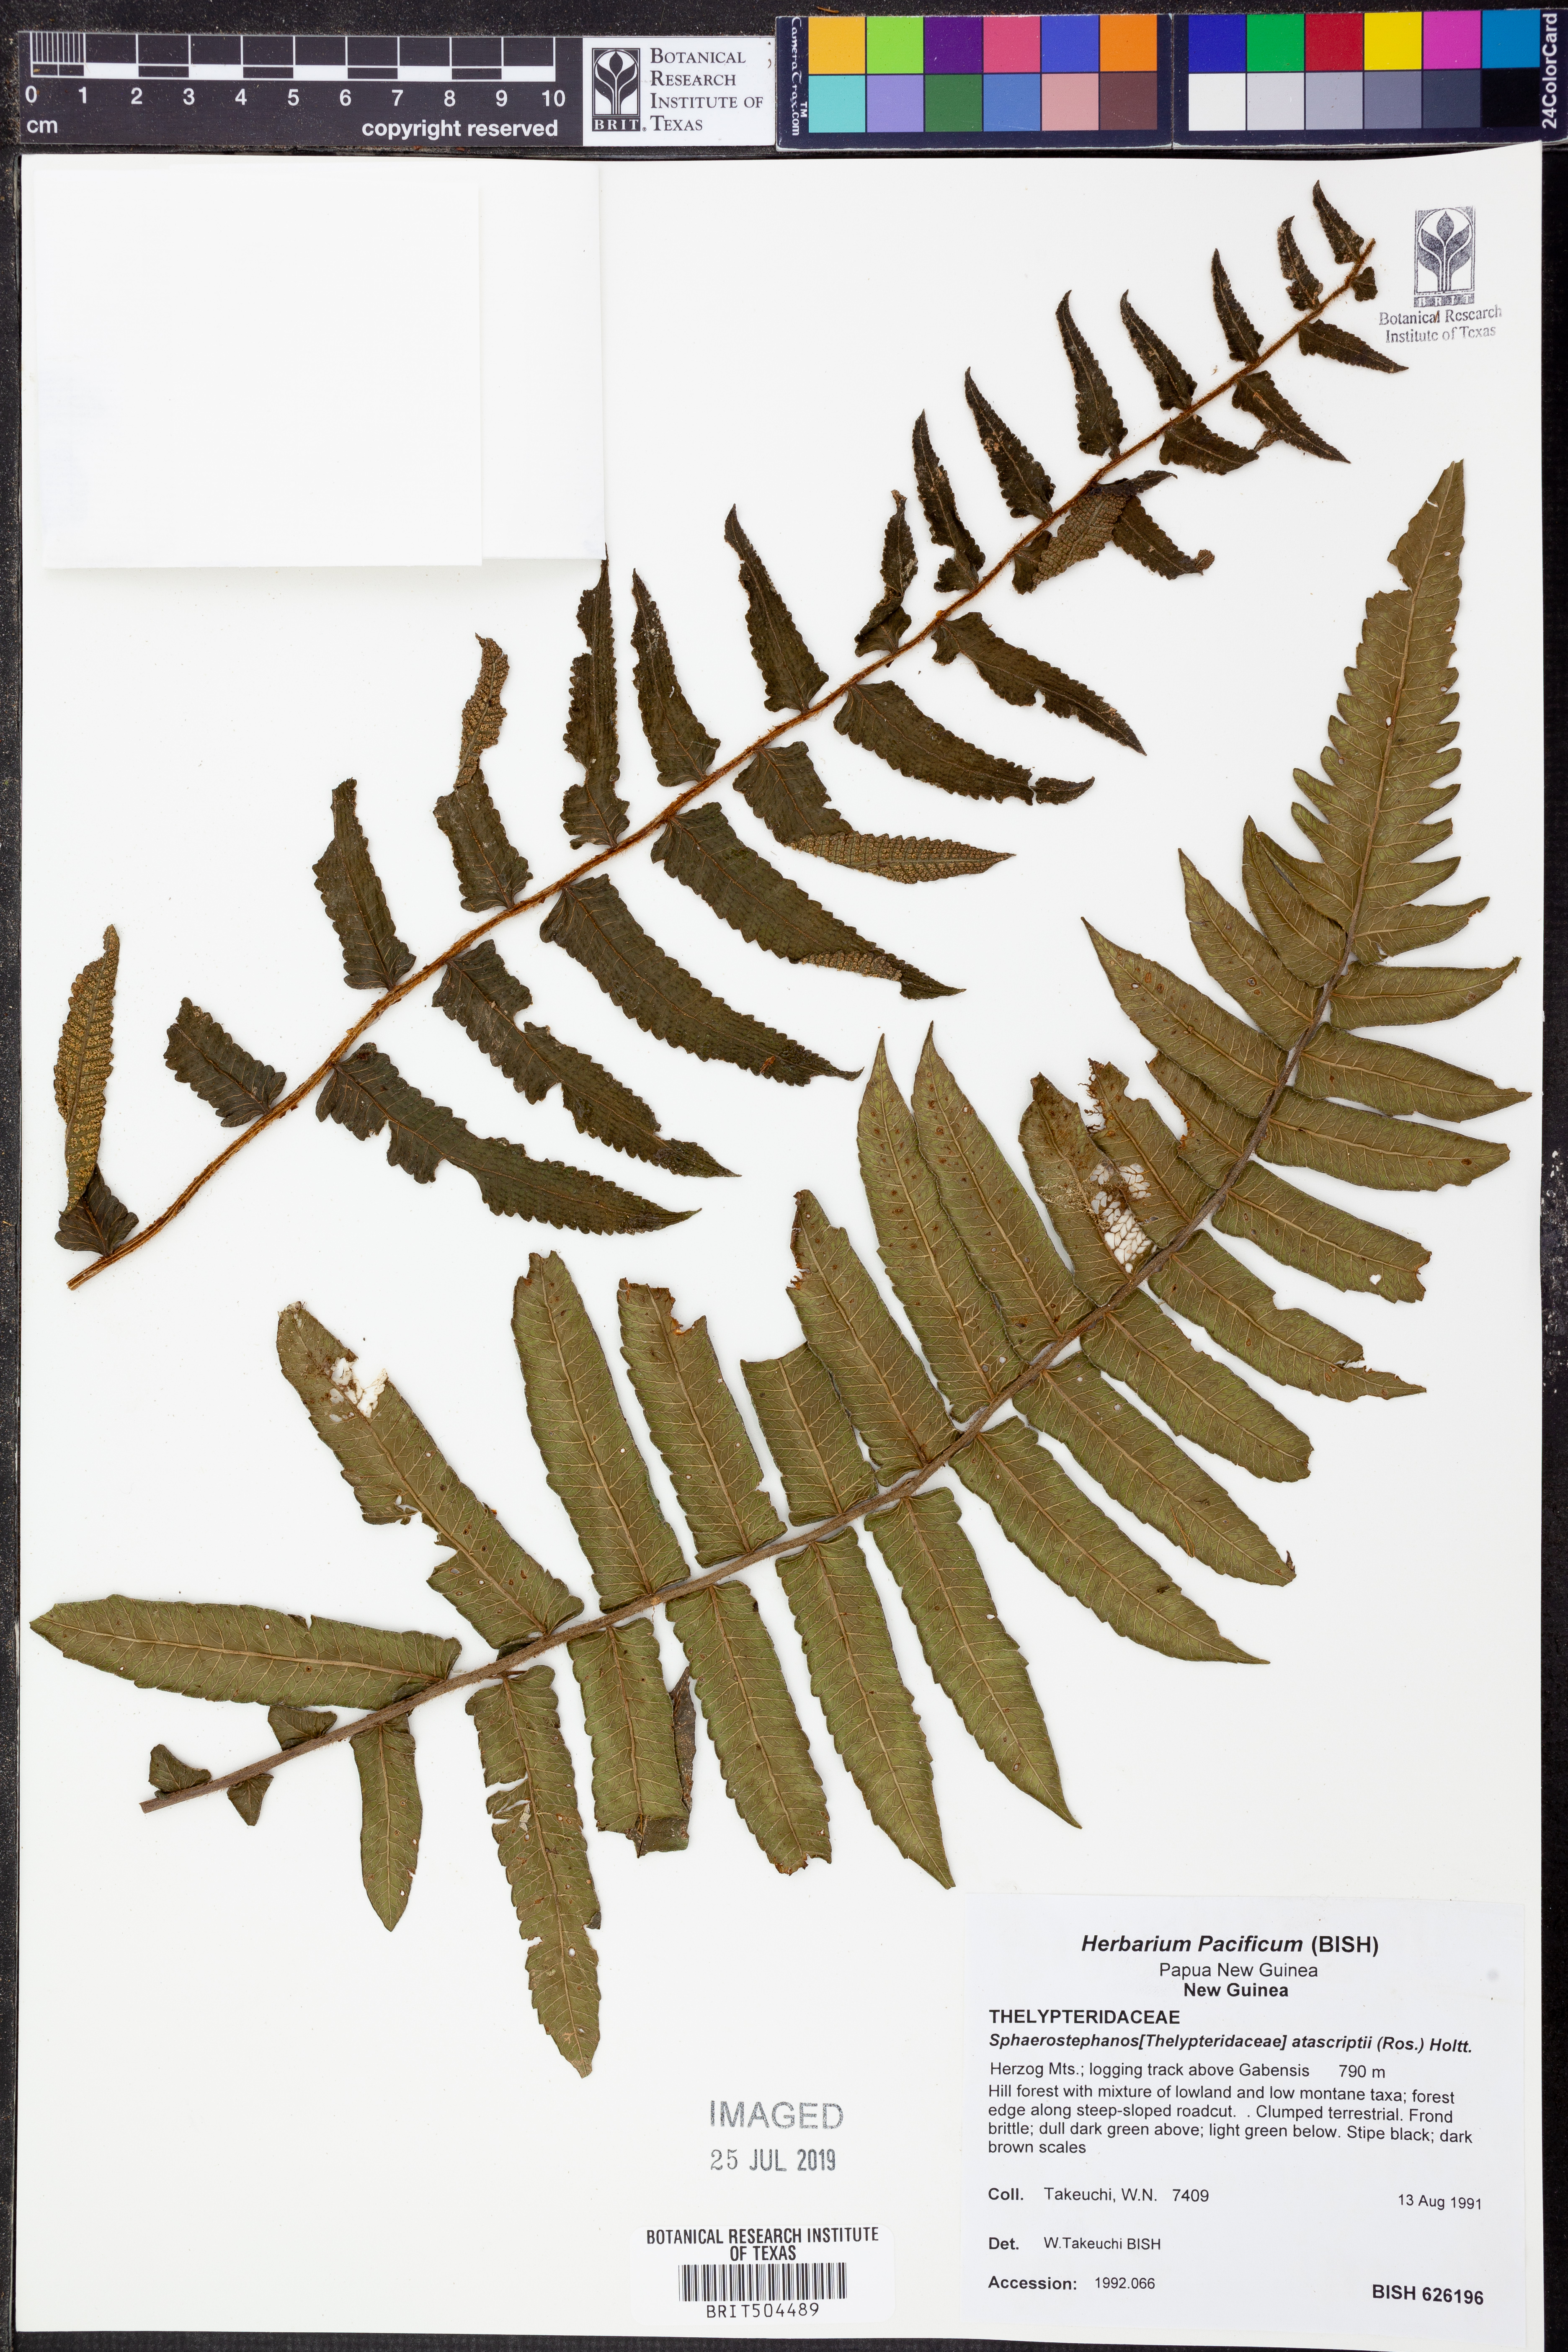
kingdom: Plantae
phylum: Tracheophyta
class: Polypodiopsida
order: Polypodiales
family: Thelypteridaceae
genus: Sphaerostephanos
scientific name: Sphaerostephanos atasripii
